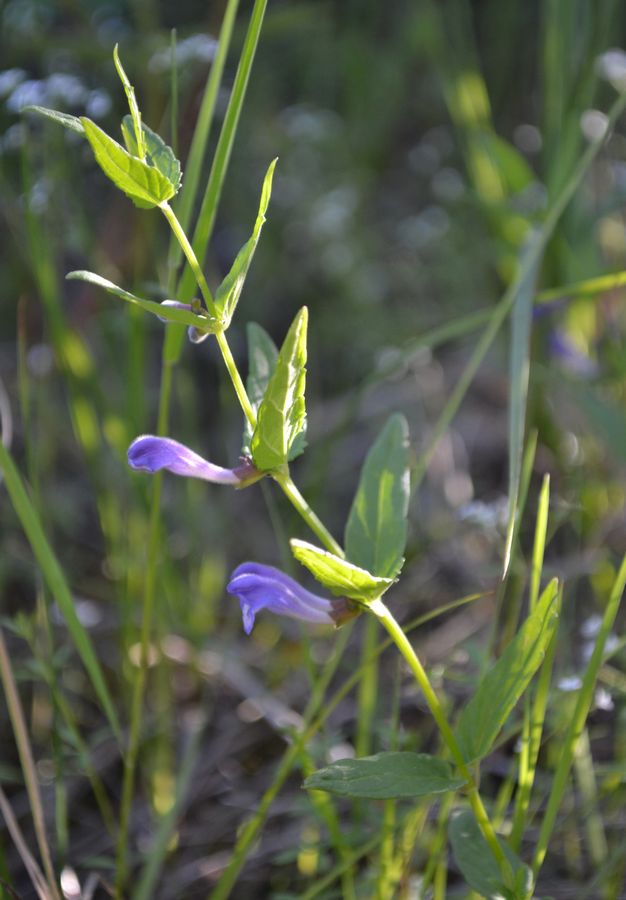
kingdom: Plantae
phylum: Tracheophyta
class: Magnoliopsida
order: Lamiales
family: Lamiaceae
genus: Scutellaria
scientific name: Scutellaria galericulata
